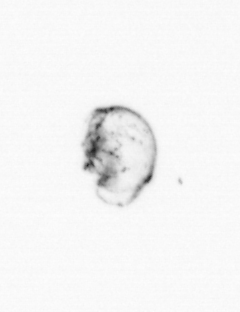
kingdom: Animalia
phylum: Arthropoda
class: Maxillopoda
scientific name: Maxillopoda
